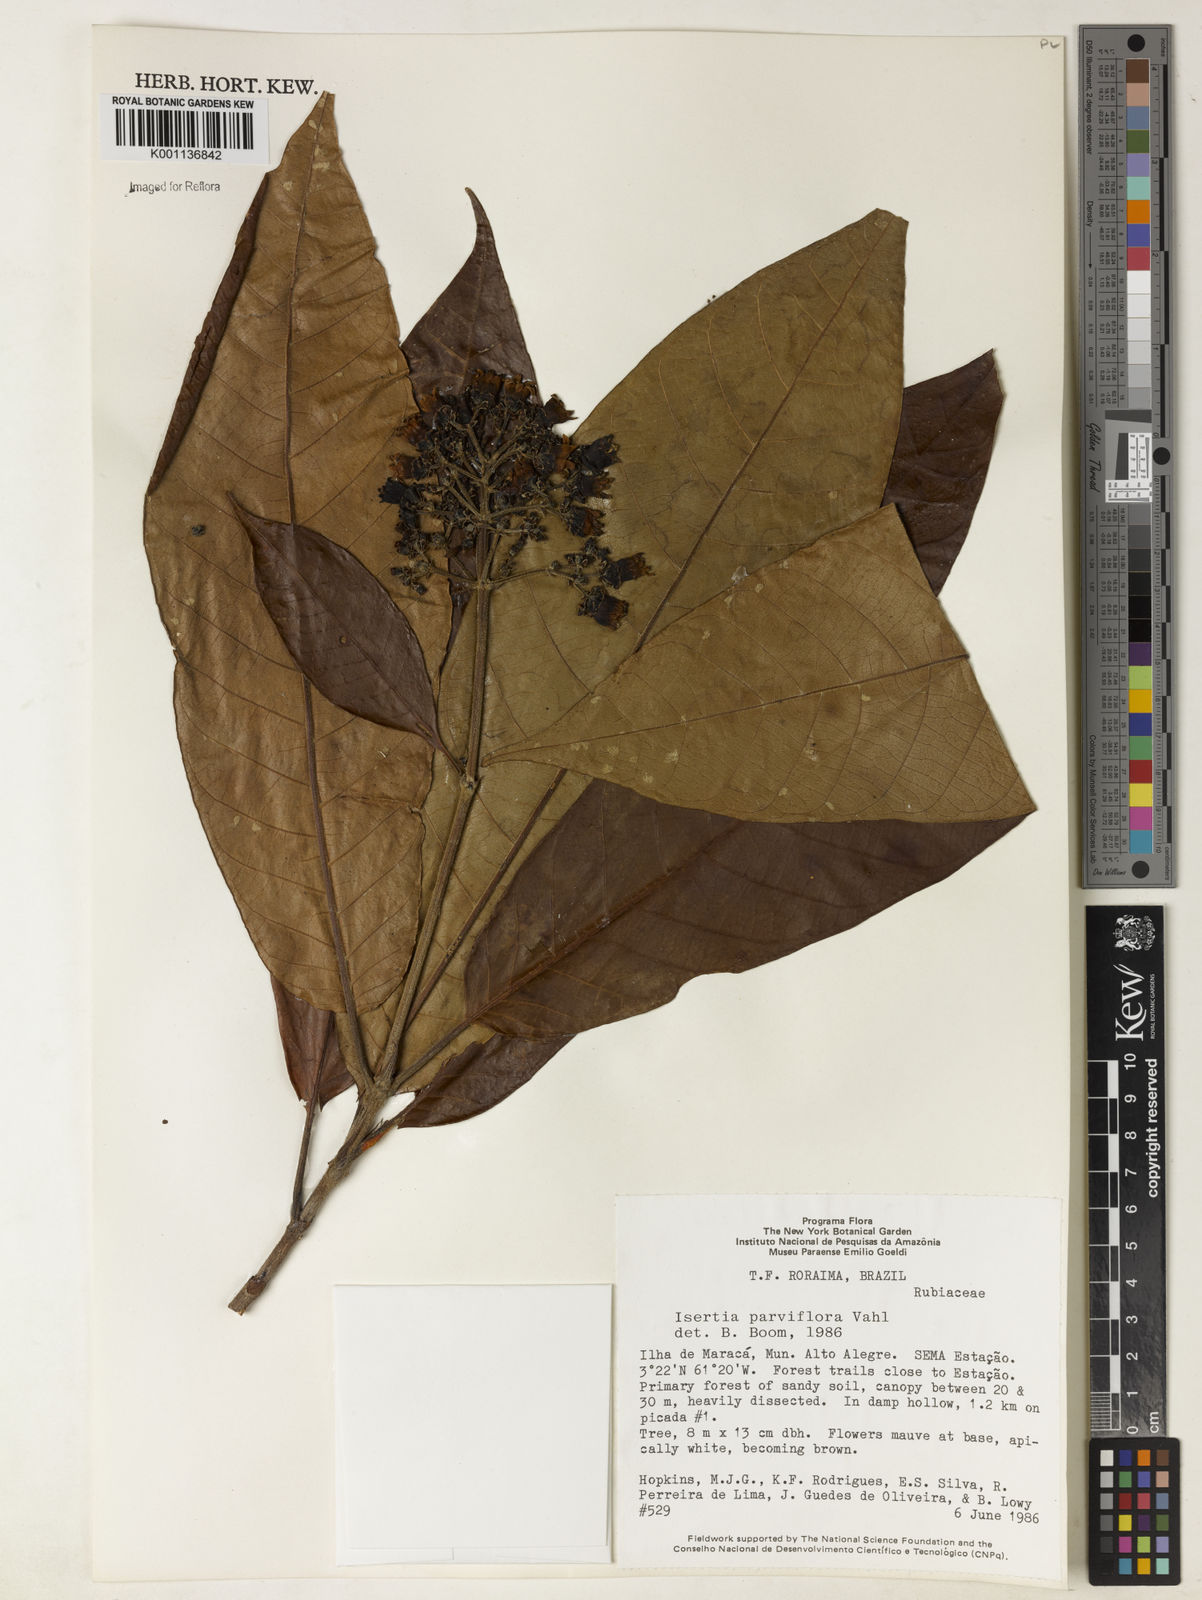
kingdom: Plantae
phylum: Tracheophyta
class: Magnoliopsida
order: Gentianales
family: Rubiaceae
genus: Isertia
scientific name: Isertia parviflora
